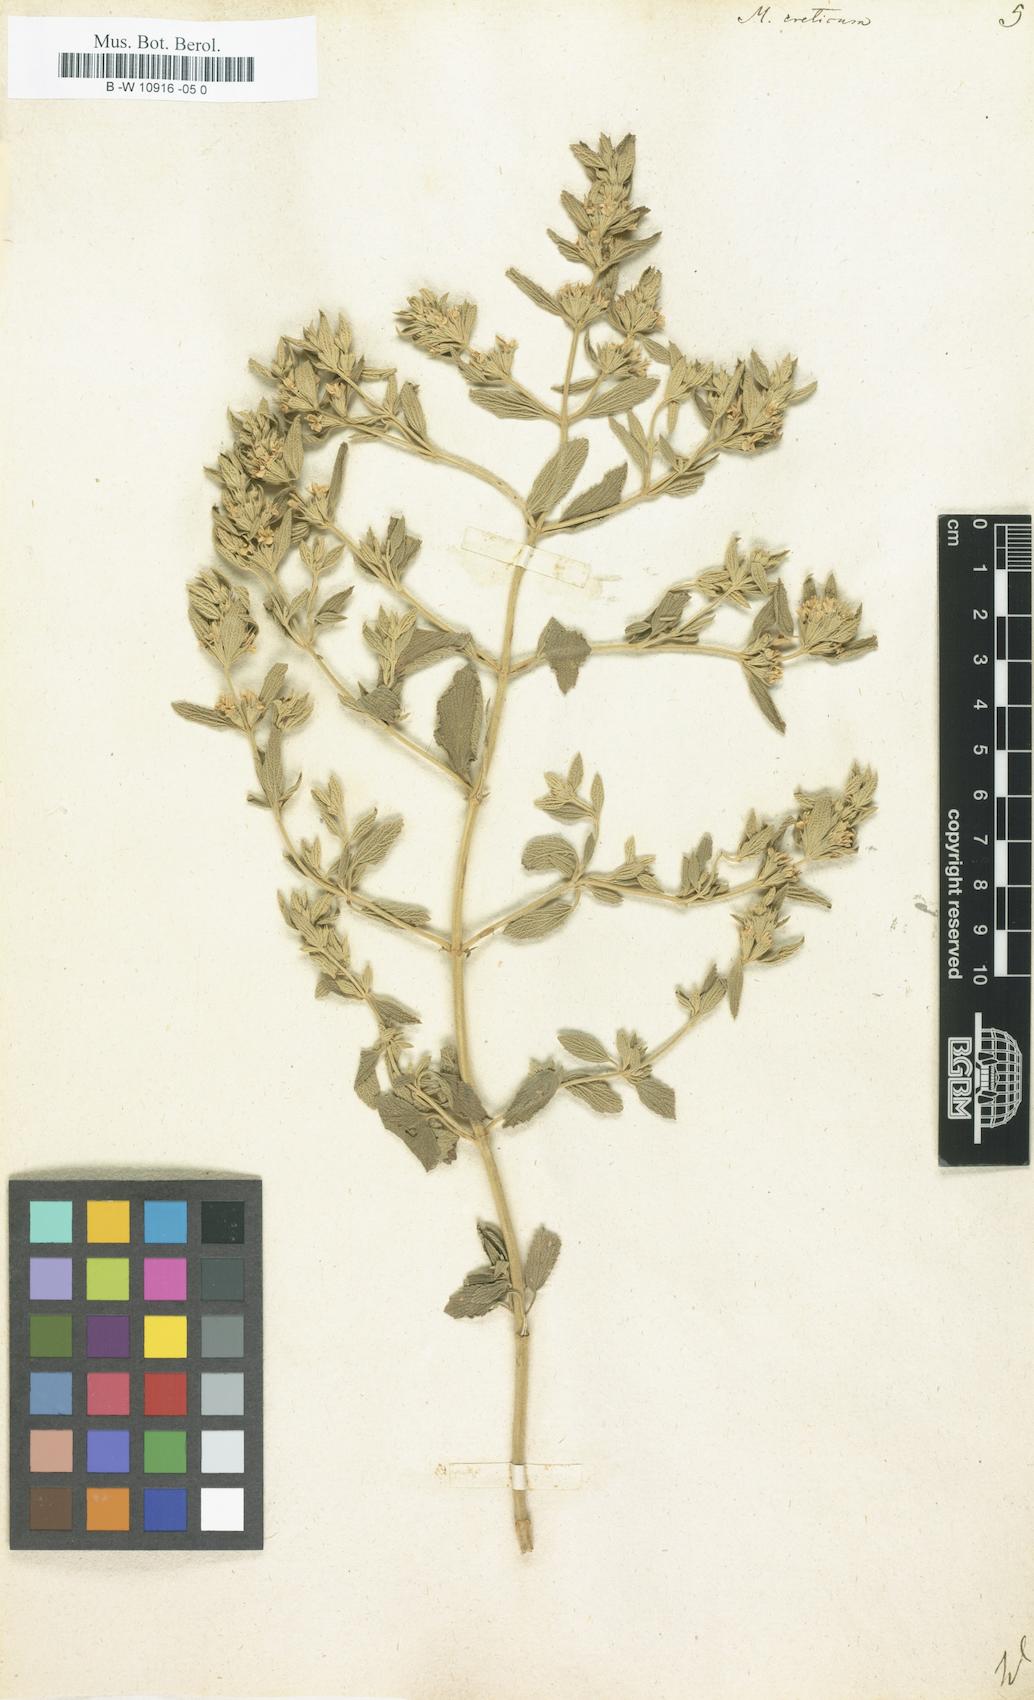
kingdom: Plantae
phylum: Tracheophyta
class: Magnoliopsida
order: Lamiales
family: Lamiaceae
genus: Marrubium
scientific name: Marrubium peregrinum
